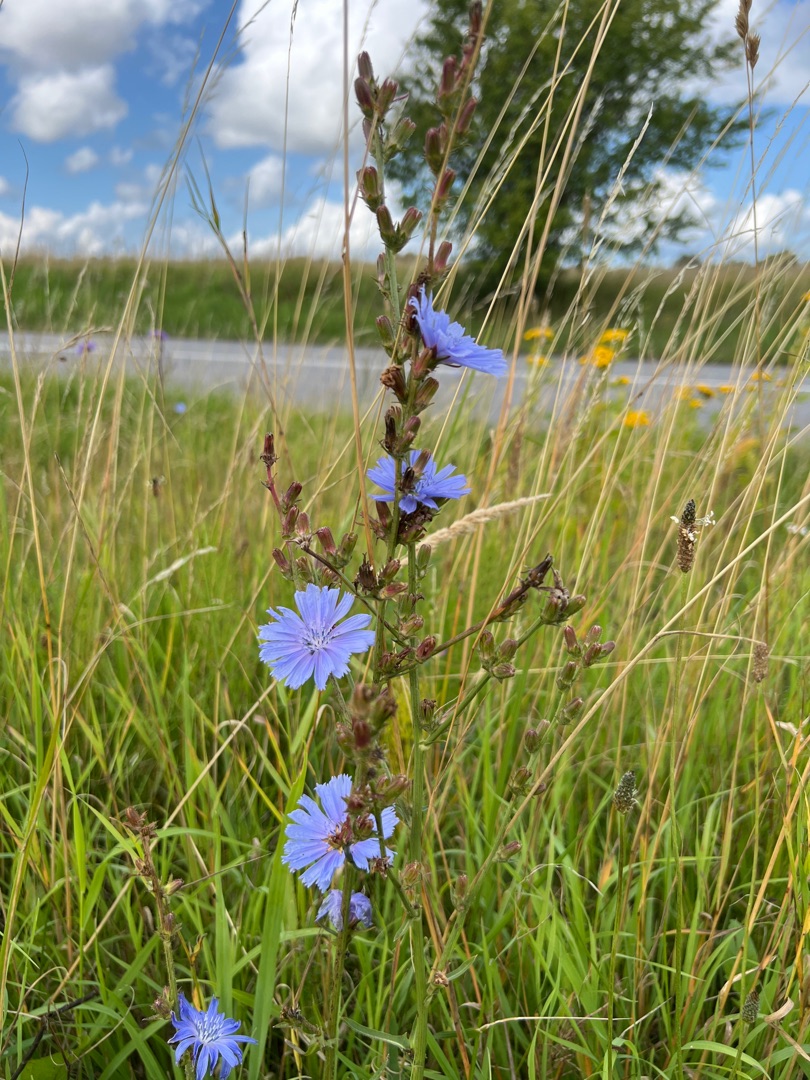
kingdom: Plantae
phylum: Tracheophyta
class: Magnoliopsida
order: Asterales
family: Asteraceae
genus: Cichorium
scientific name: Cichorium intybus
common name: Cikorie
